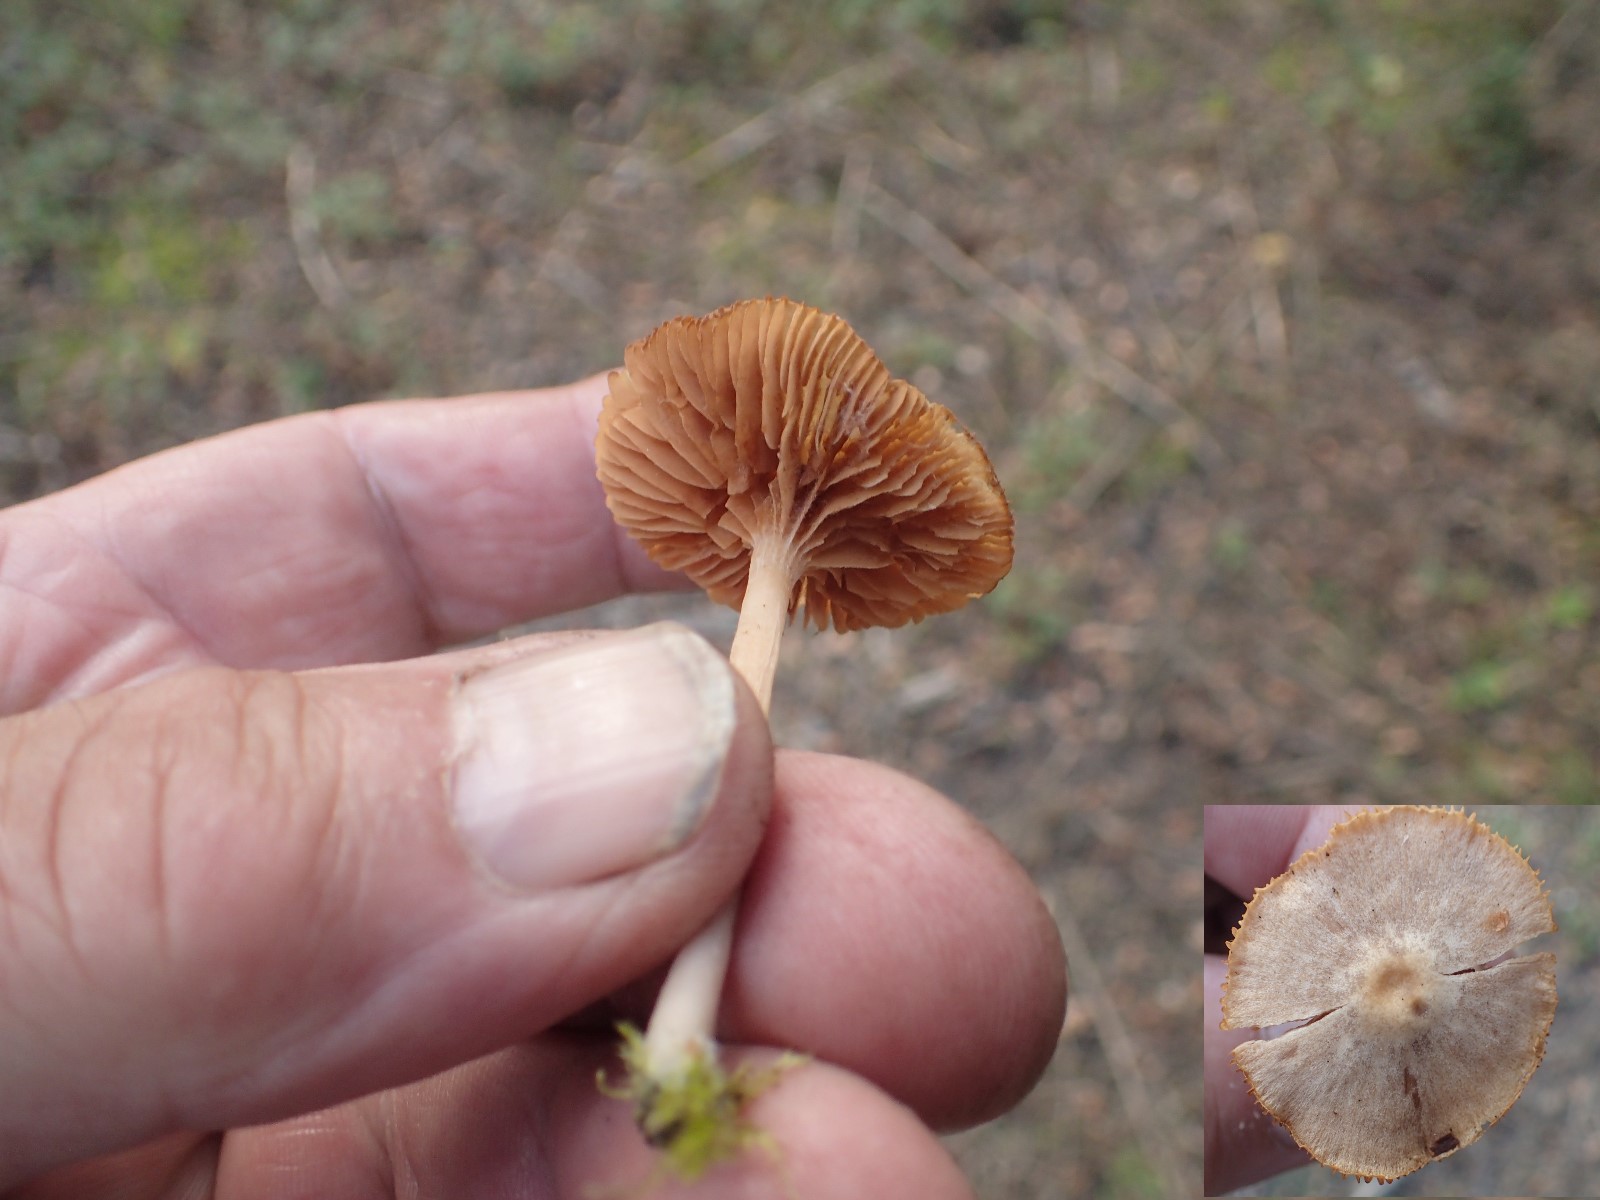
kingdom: Fungi
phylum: Basidiomycota
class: Agaricomycetes
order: Agaricales
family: Tubariaceae
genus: Tubaria
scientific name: Tubaria
